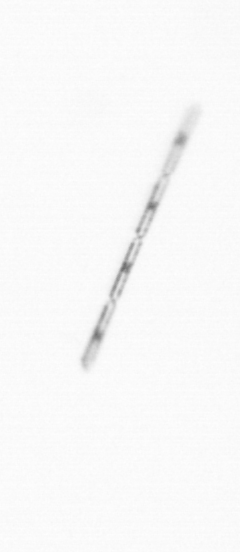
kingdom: Chromista
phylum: Ochrophyta
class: Bacillariophyceae
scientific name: Bacillariophyceae
